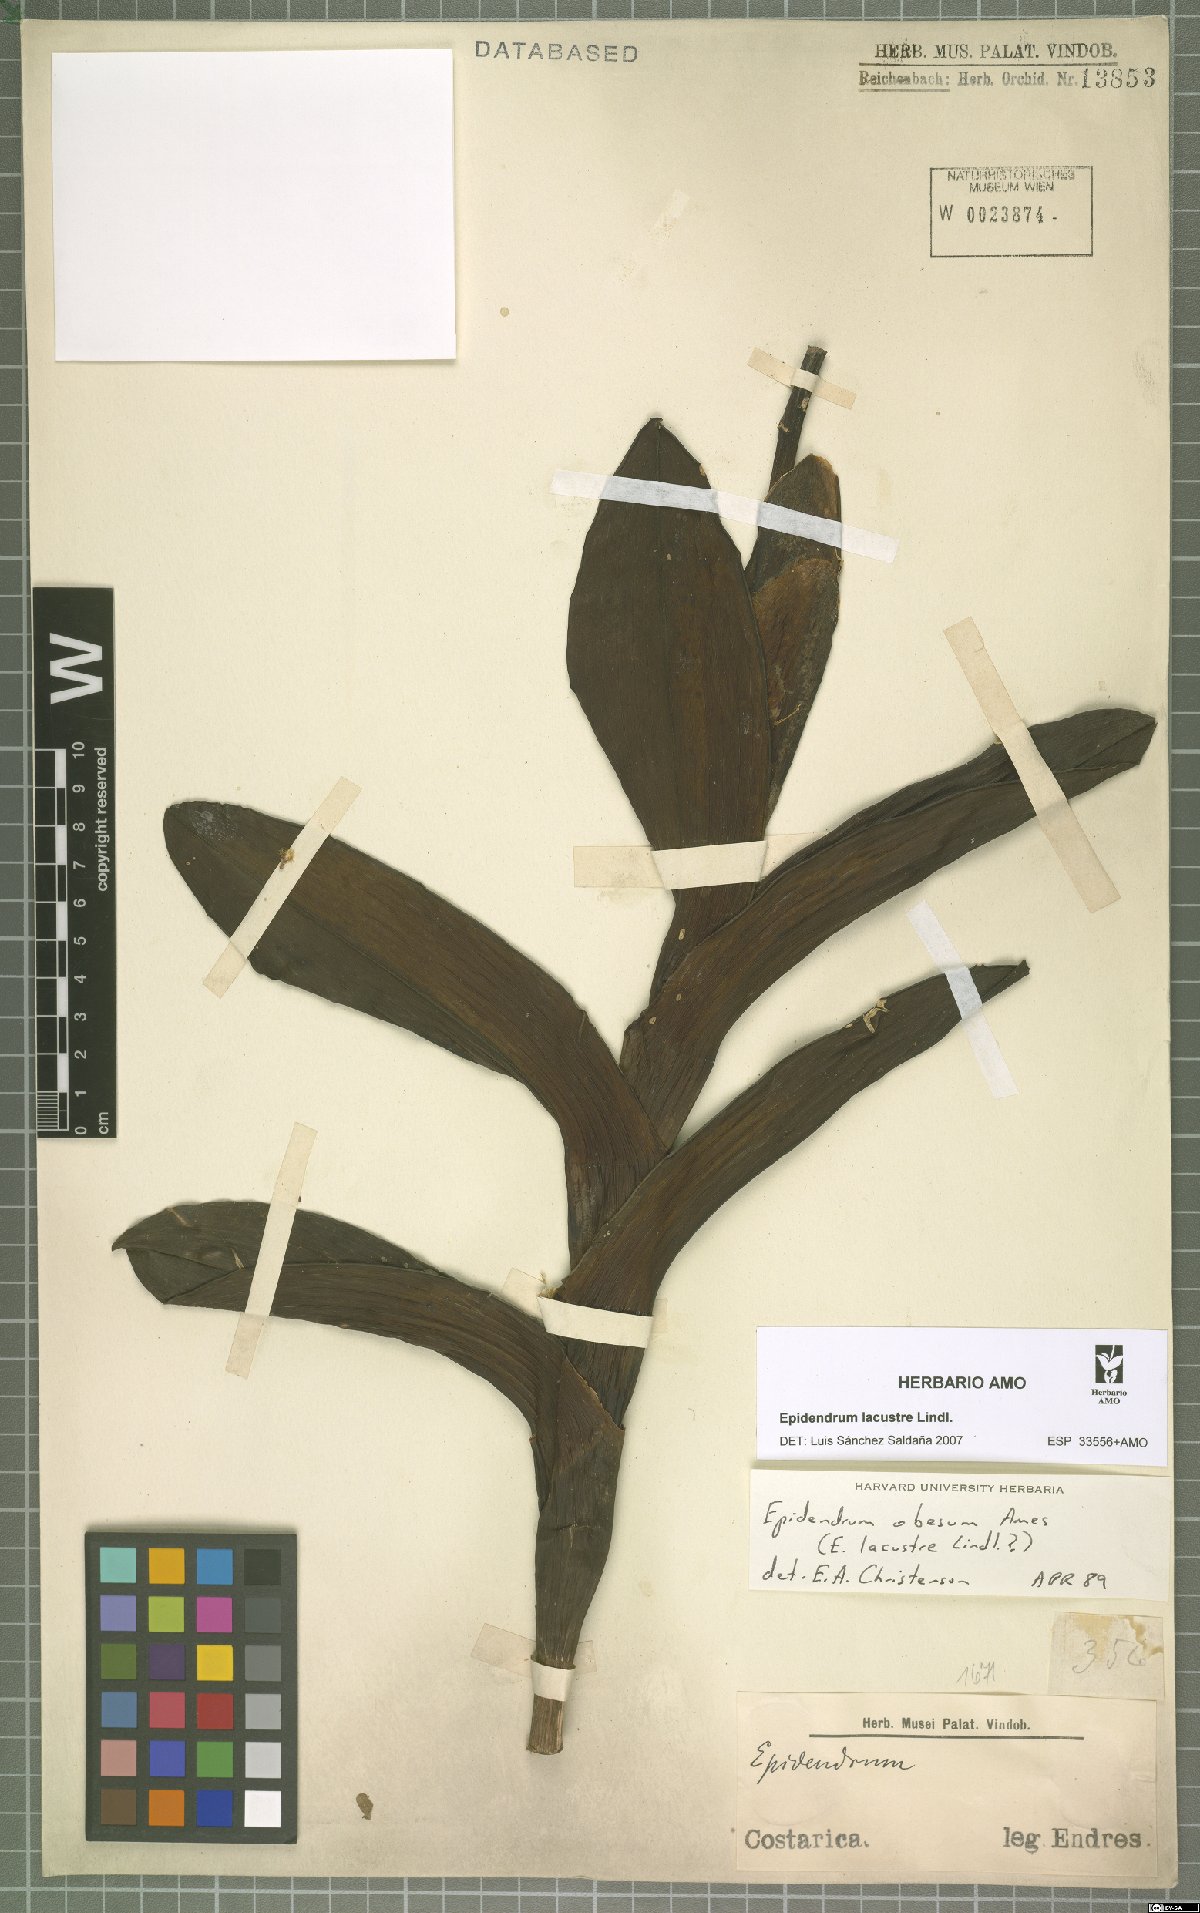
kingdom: Plantae
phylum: Tracheophyta
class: Liliopsida
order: Asparagales
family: Orchidaceae
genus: Epidendrum
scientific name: Epidendrum lacustre
